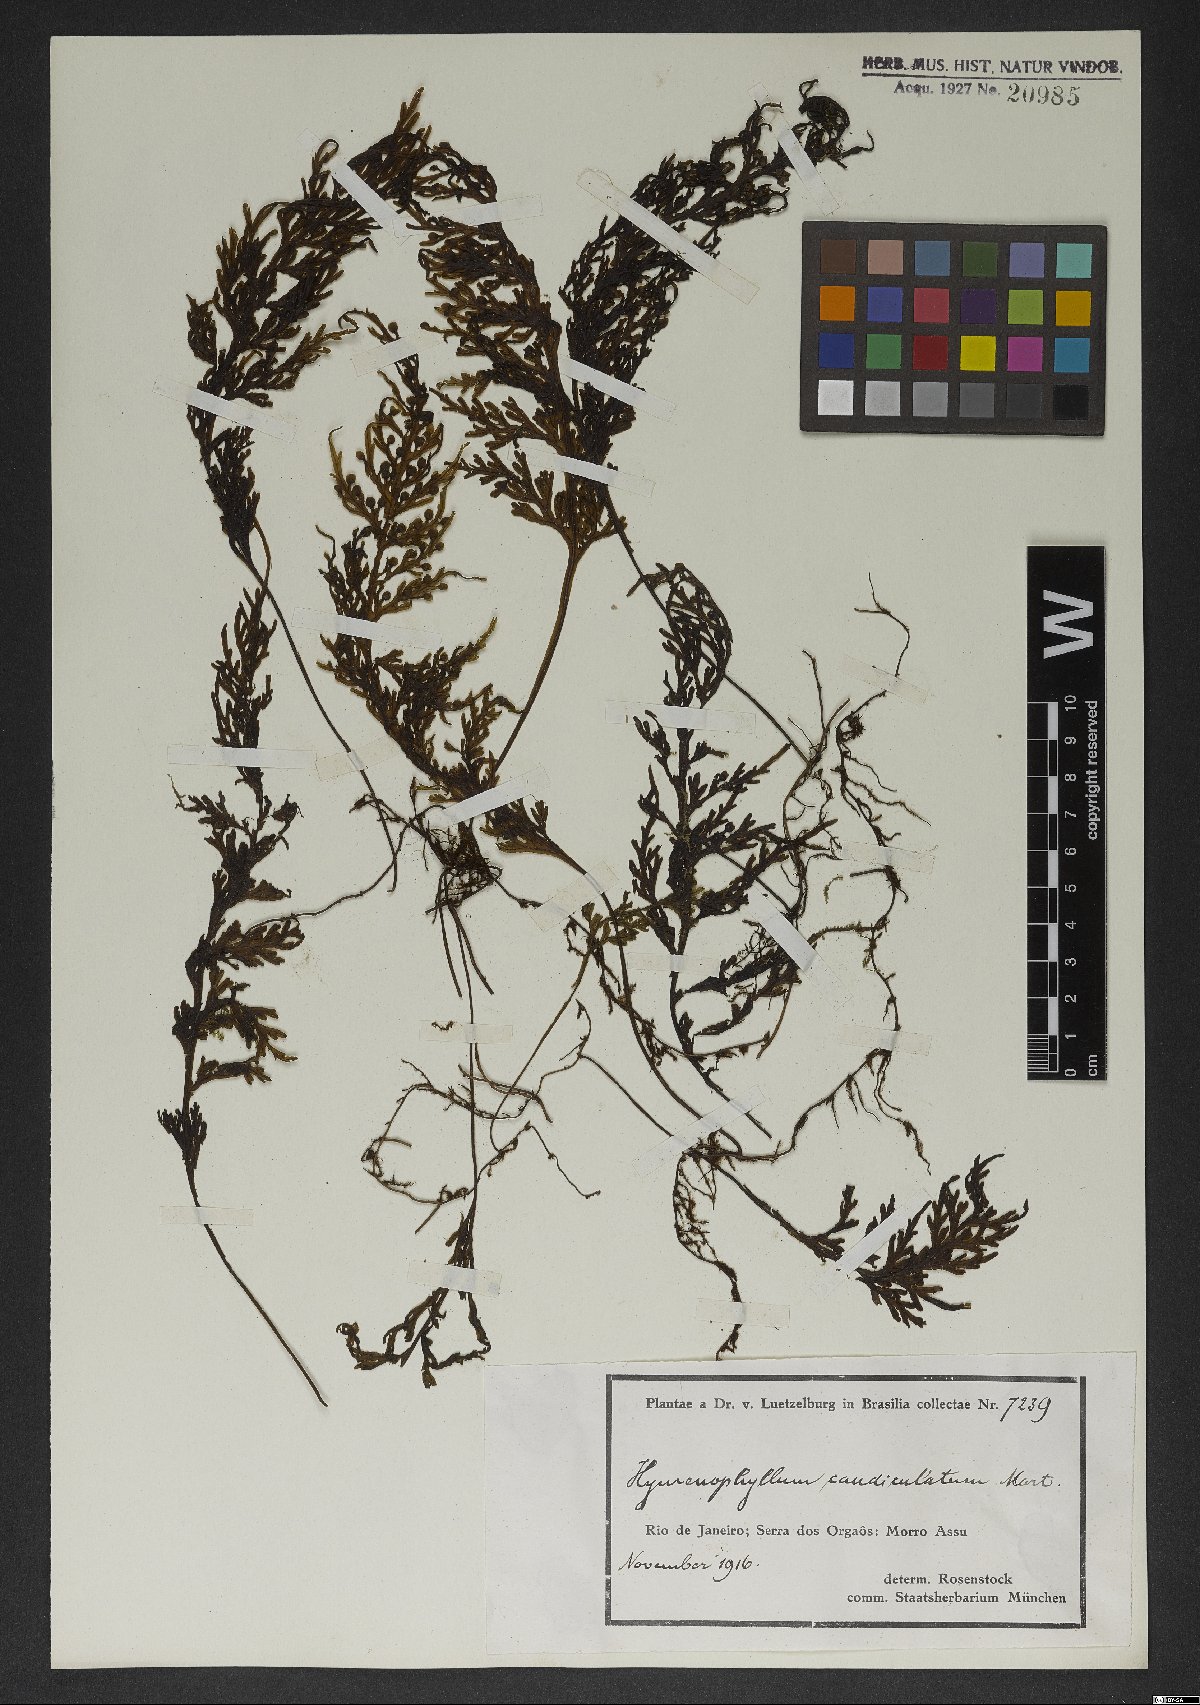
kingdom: Plantae
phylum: Tracheophyta
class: Polypodiopsida
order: Hymenophyllales
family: Hymenophyllaceae
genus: Hymenophyllum
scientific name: Hymenophyllum caudiculatum
